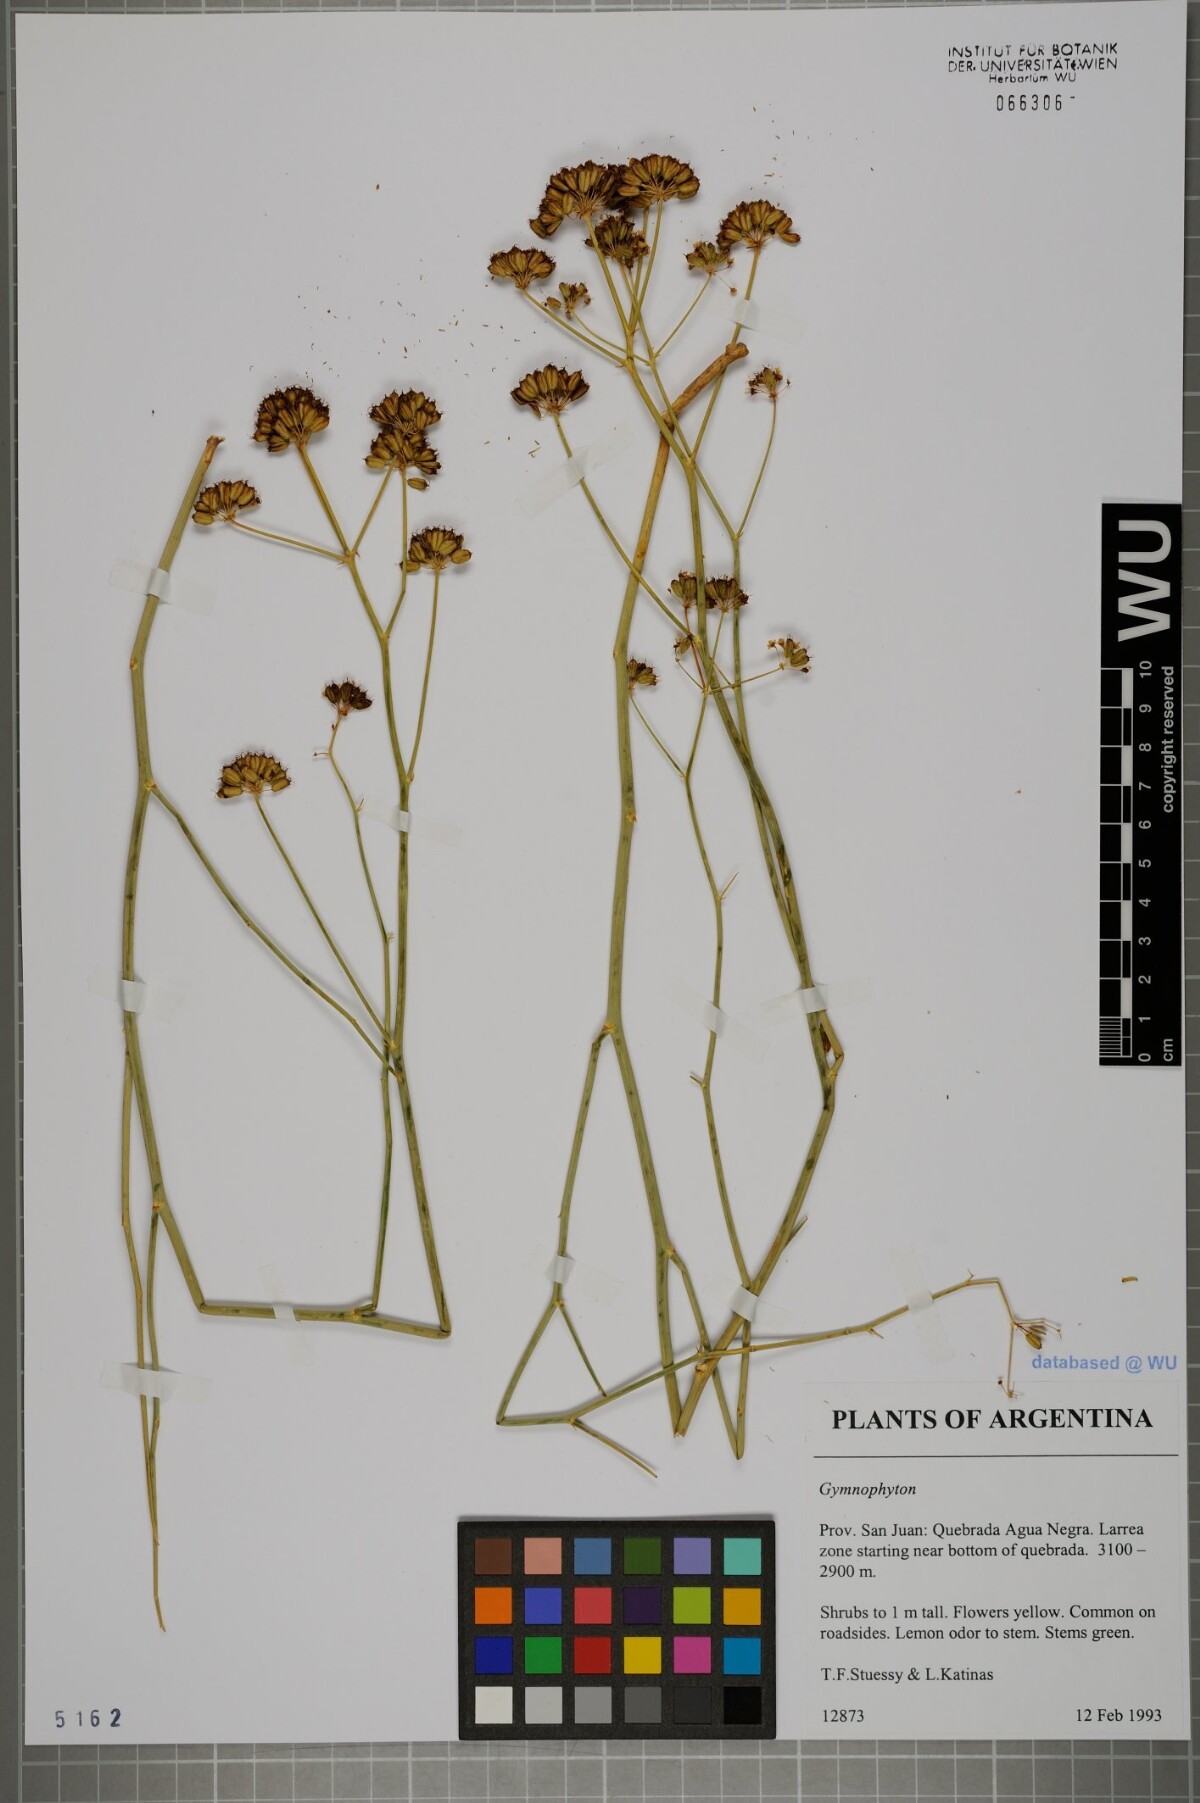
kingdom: Plantae
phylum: Tracheophyta
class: Magnoliopsida
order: Apiales
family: Apiaceae
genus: Gymnophyton
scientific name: Gymnophyton
